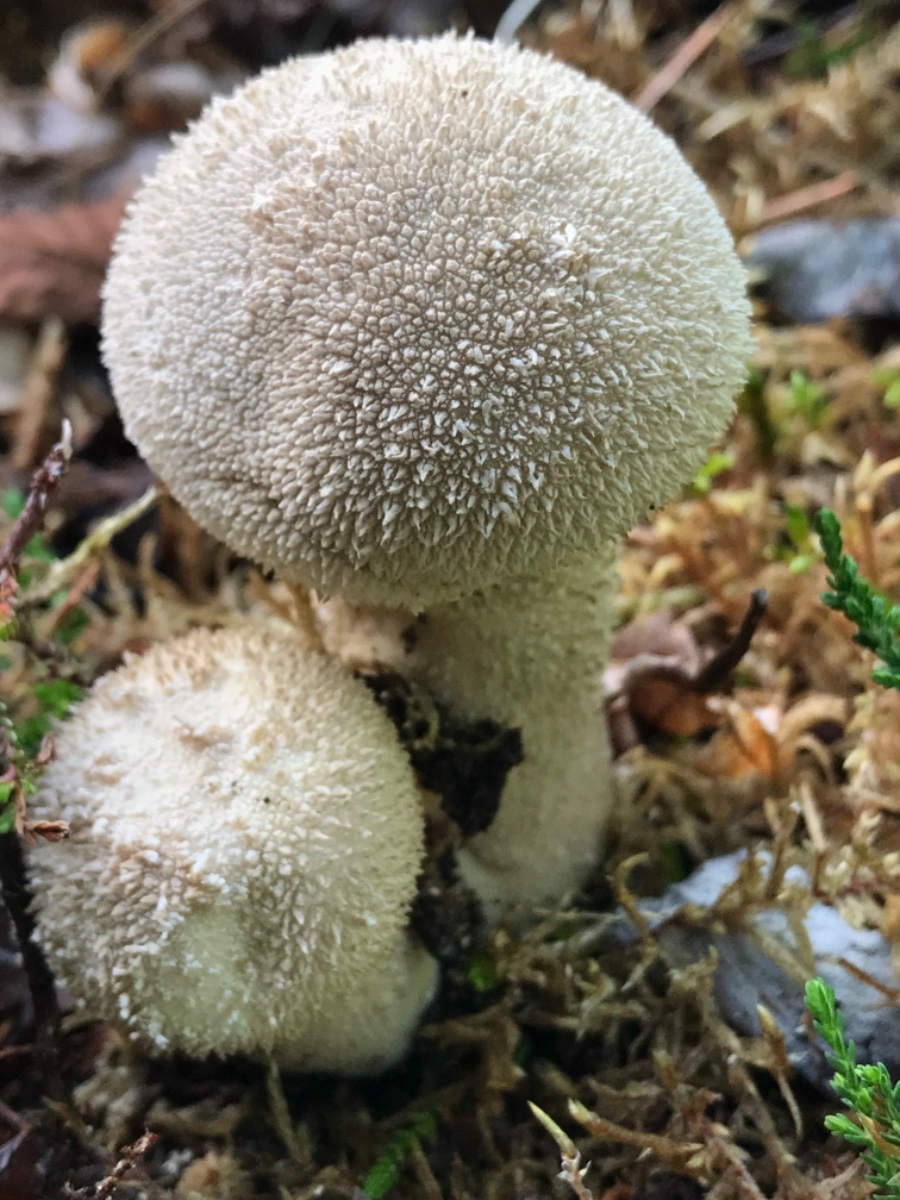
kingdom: Fungi
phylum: Basidiomycota
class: Agaricomycetes
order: Agaricales
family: Lycoperdaceae
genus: Lycoperdon
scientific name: Lycoperdon perlatum
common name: krystal-støvbold
